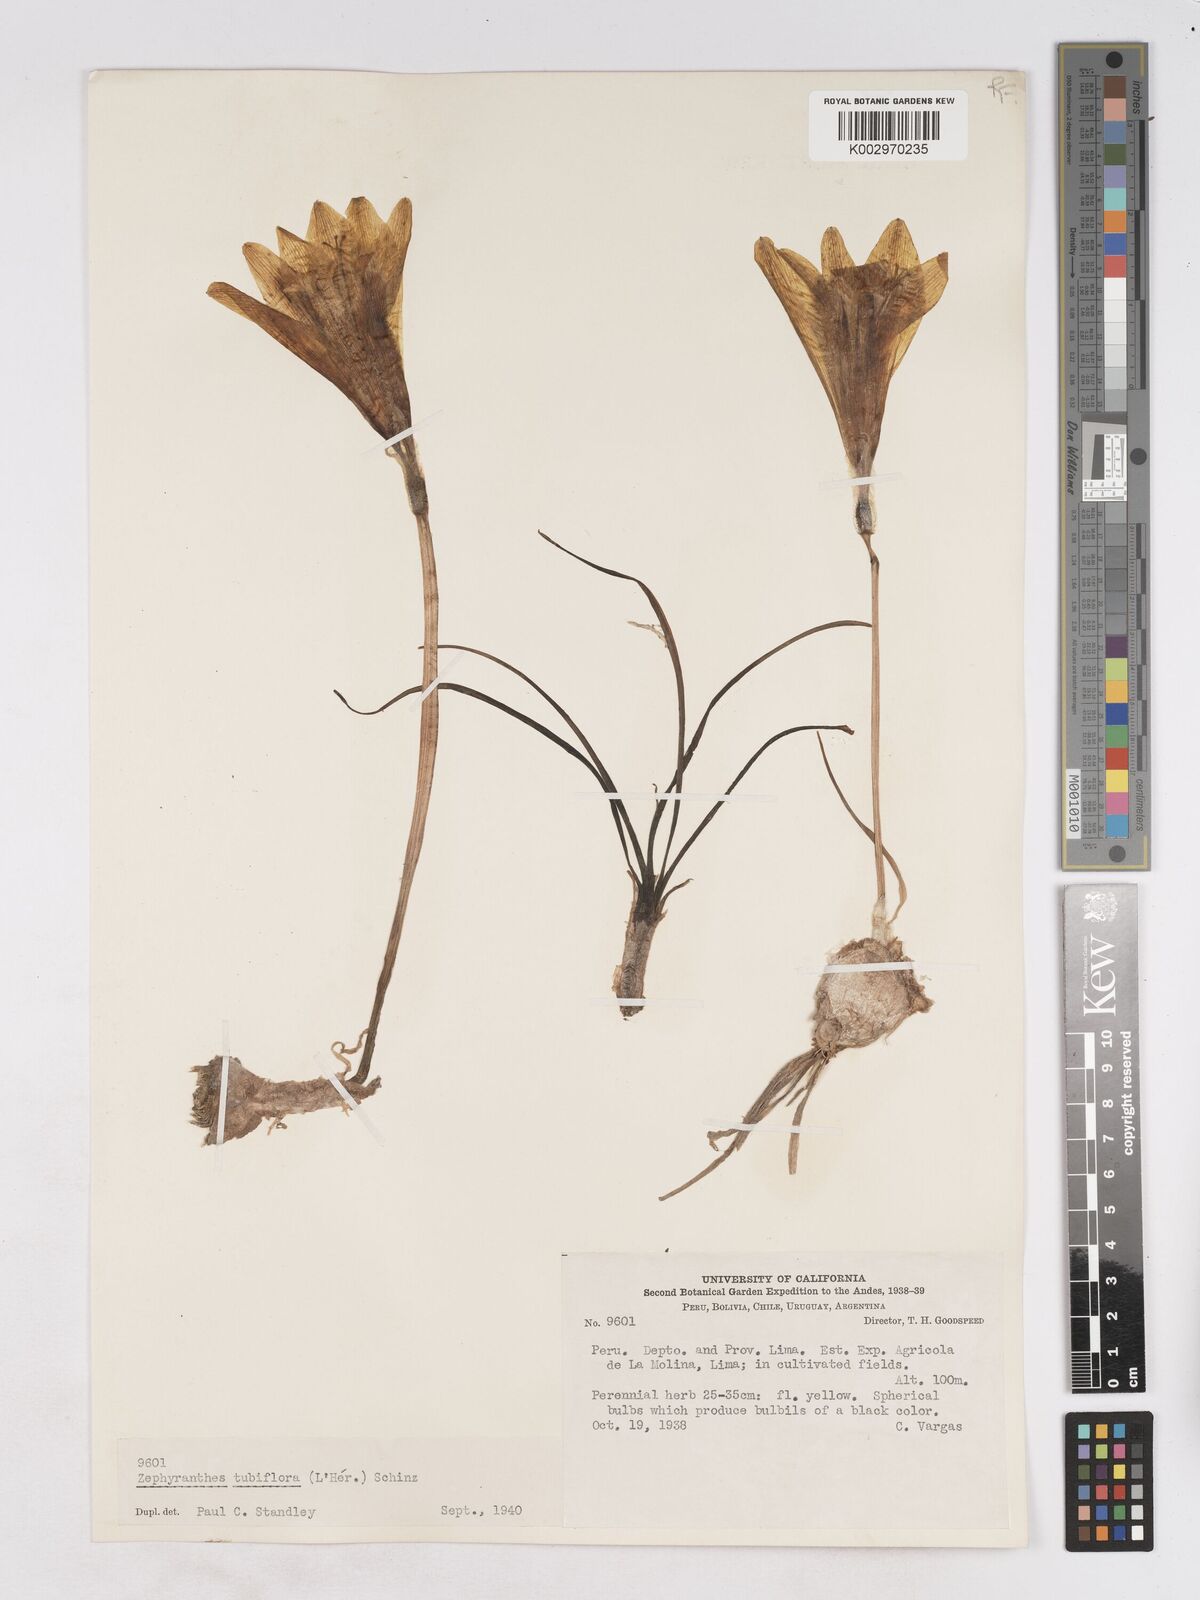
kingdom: Plantae
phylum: Tracheophyta
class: Liliopsida
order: Asparagales
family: Amaryllidaceae
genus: Pyrolirion
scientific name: Pyrolirion tubiflorum
